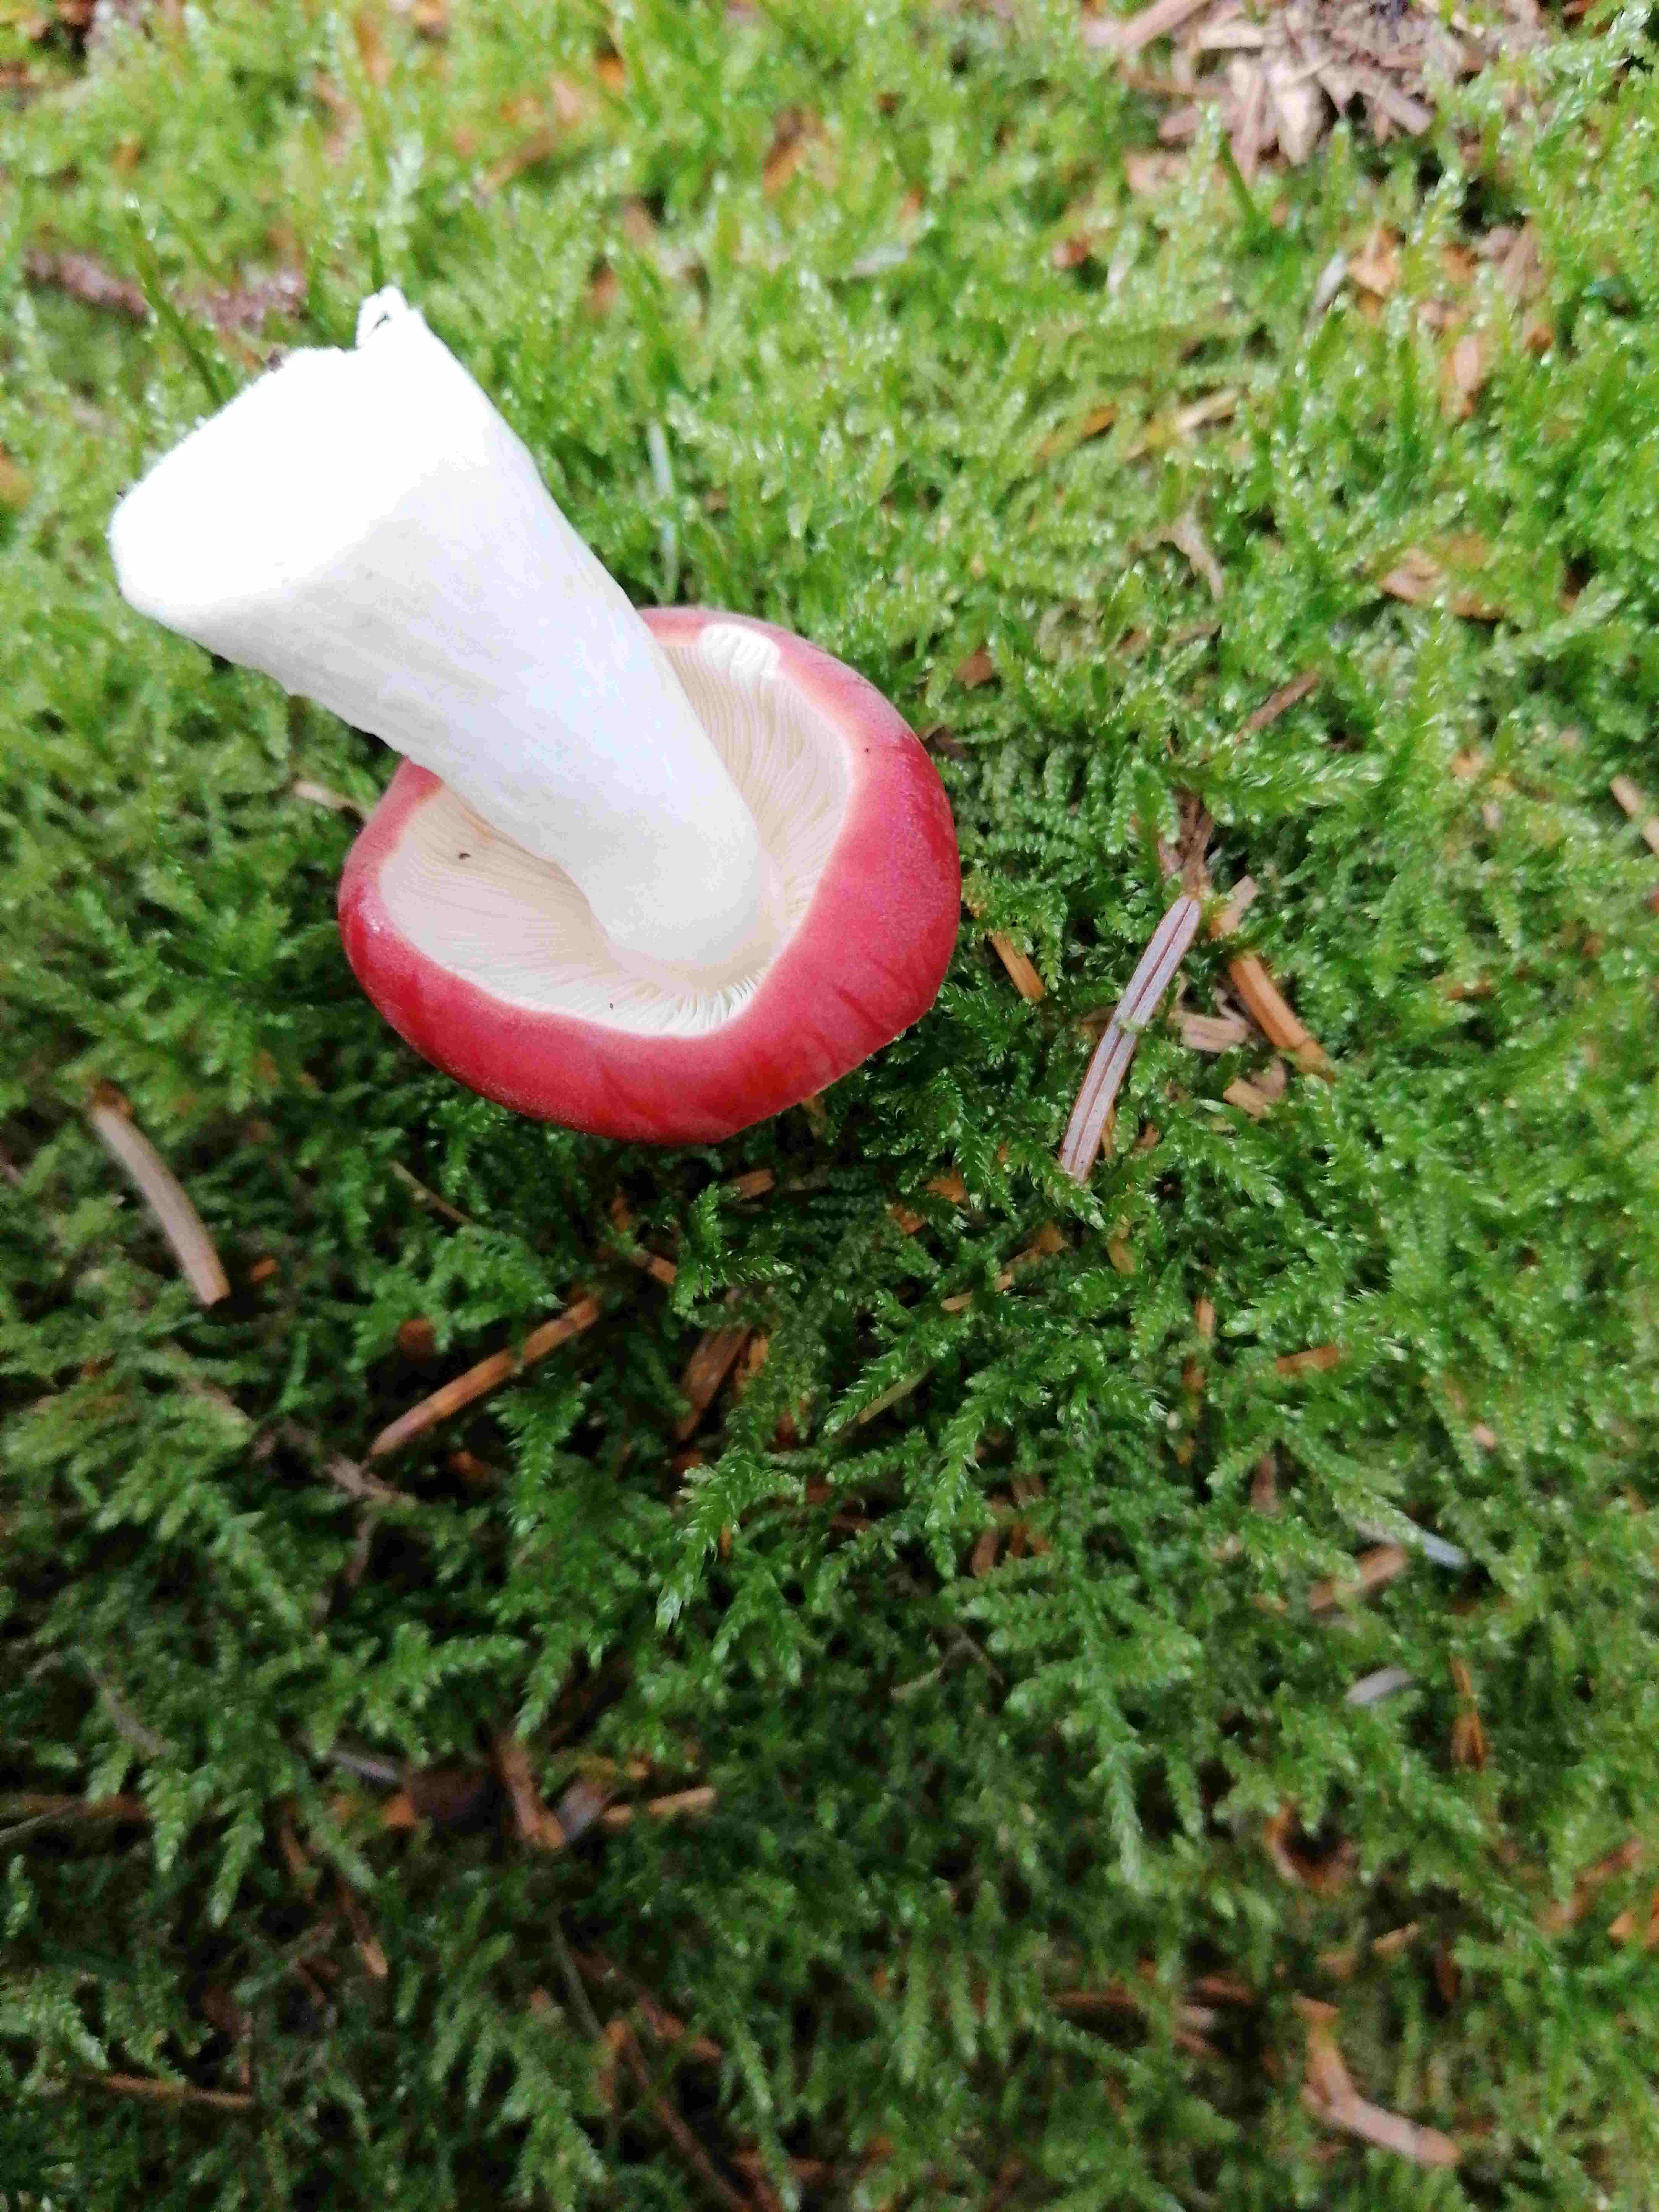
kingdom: Fungi
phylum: Basidiomycota
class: Agaricomycetes
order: Russulales
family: Russulaceae
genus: Russula
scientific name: Russula
